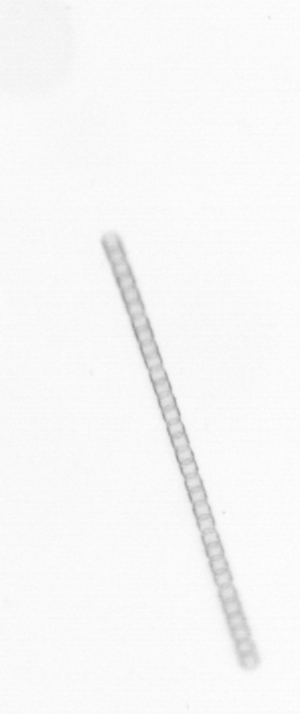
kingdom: Chromista
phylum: Ochrophyta
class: Bacillariophyceae
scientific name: Bacillariophyceae
